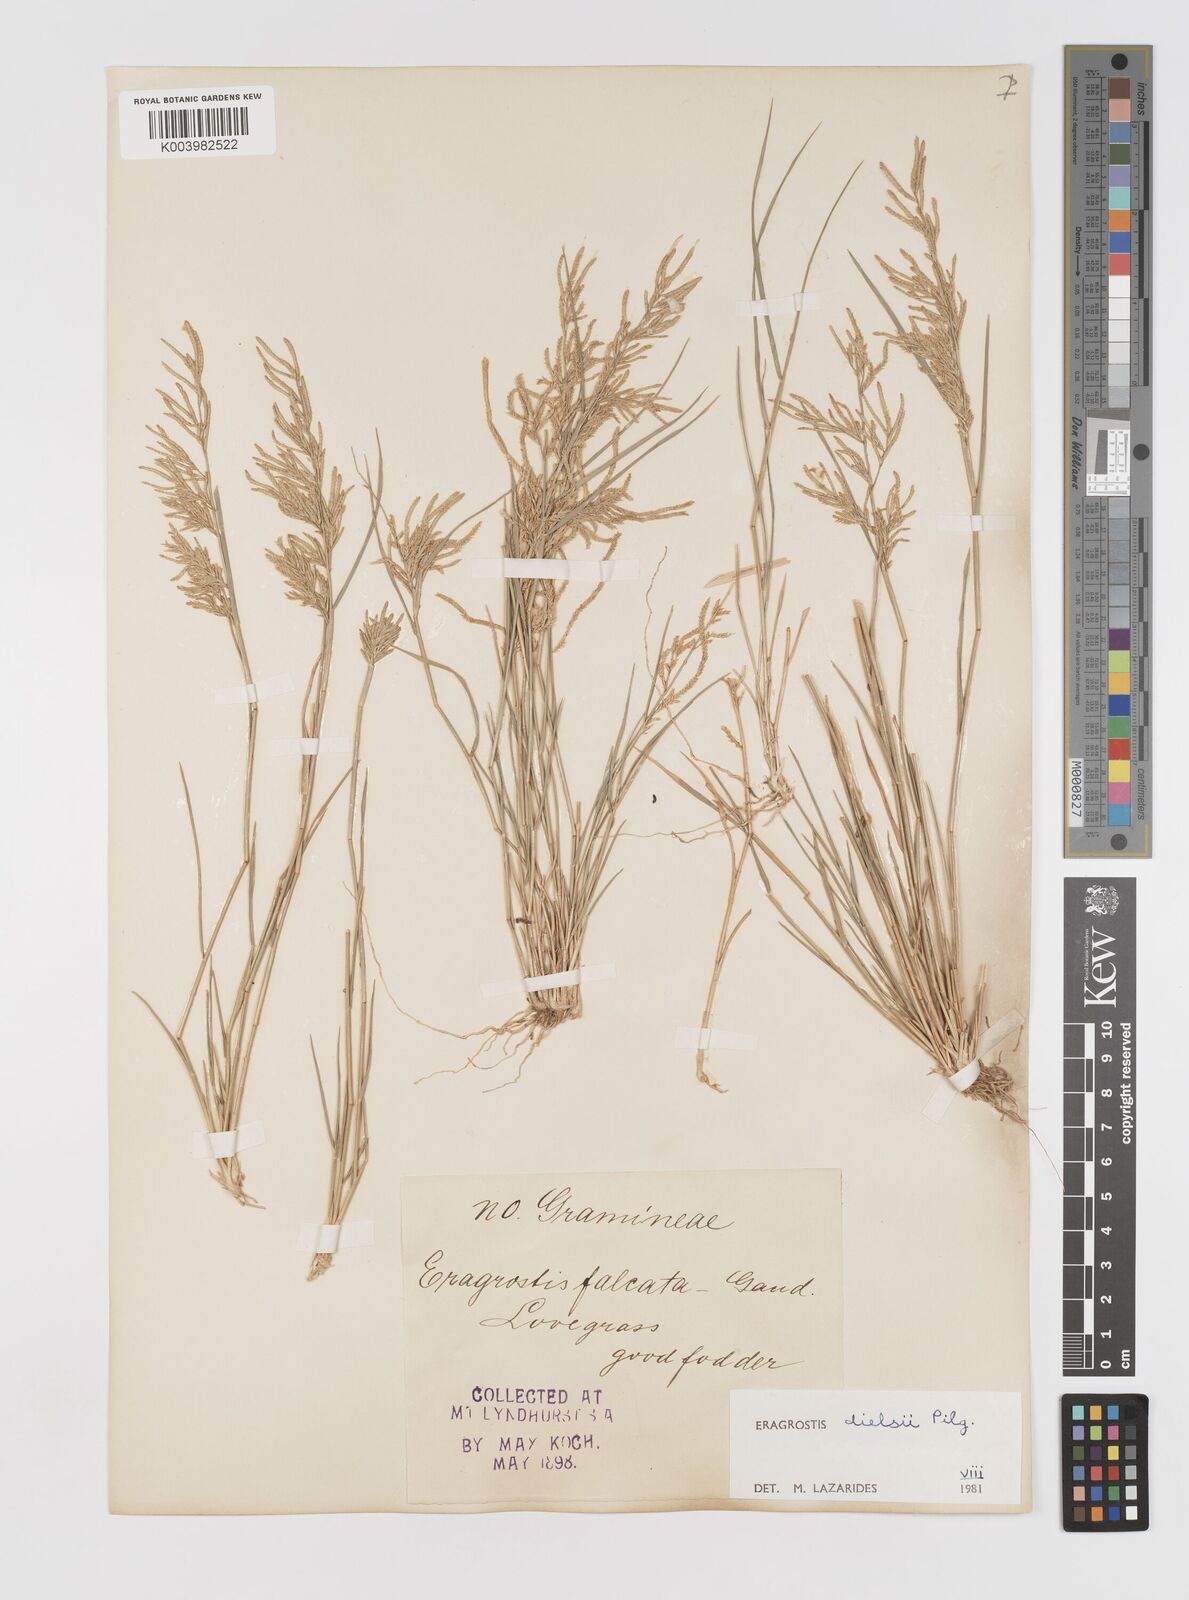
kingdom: Plantae
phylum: Tracheophyta
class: Liliopsida
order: Poales
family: Poaceae
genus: Eragrostis
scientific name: Eragrostis dielsii
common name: Lovegrass
